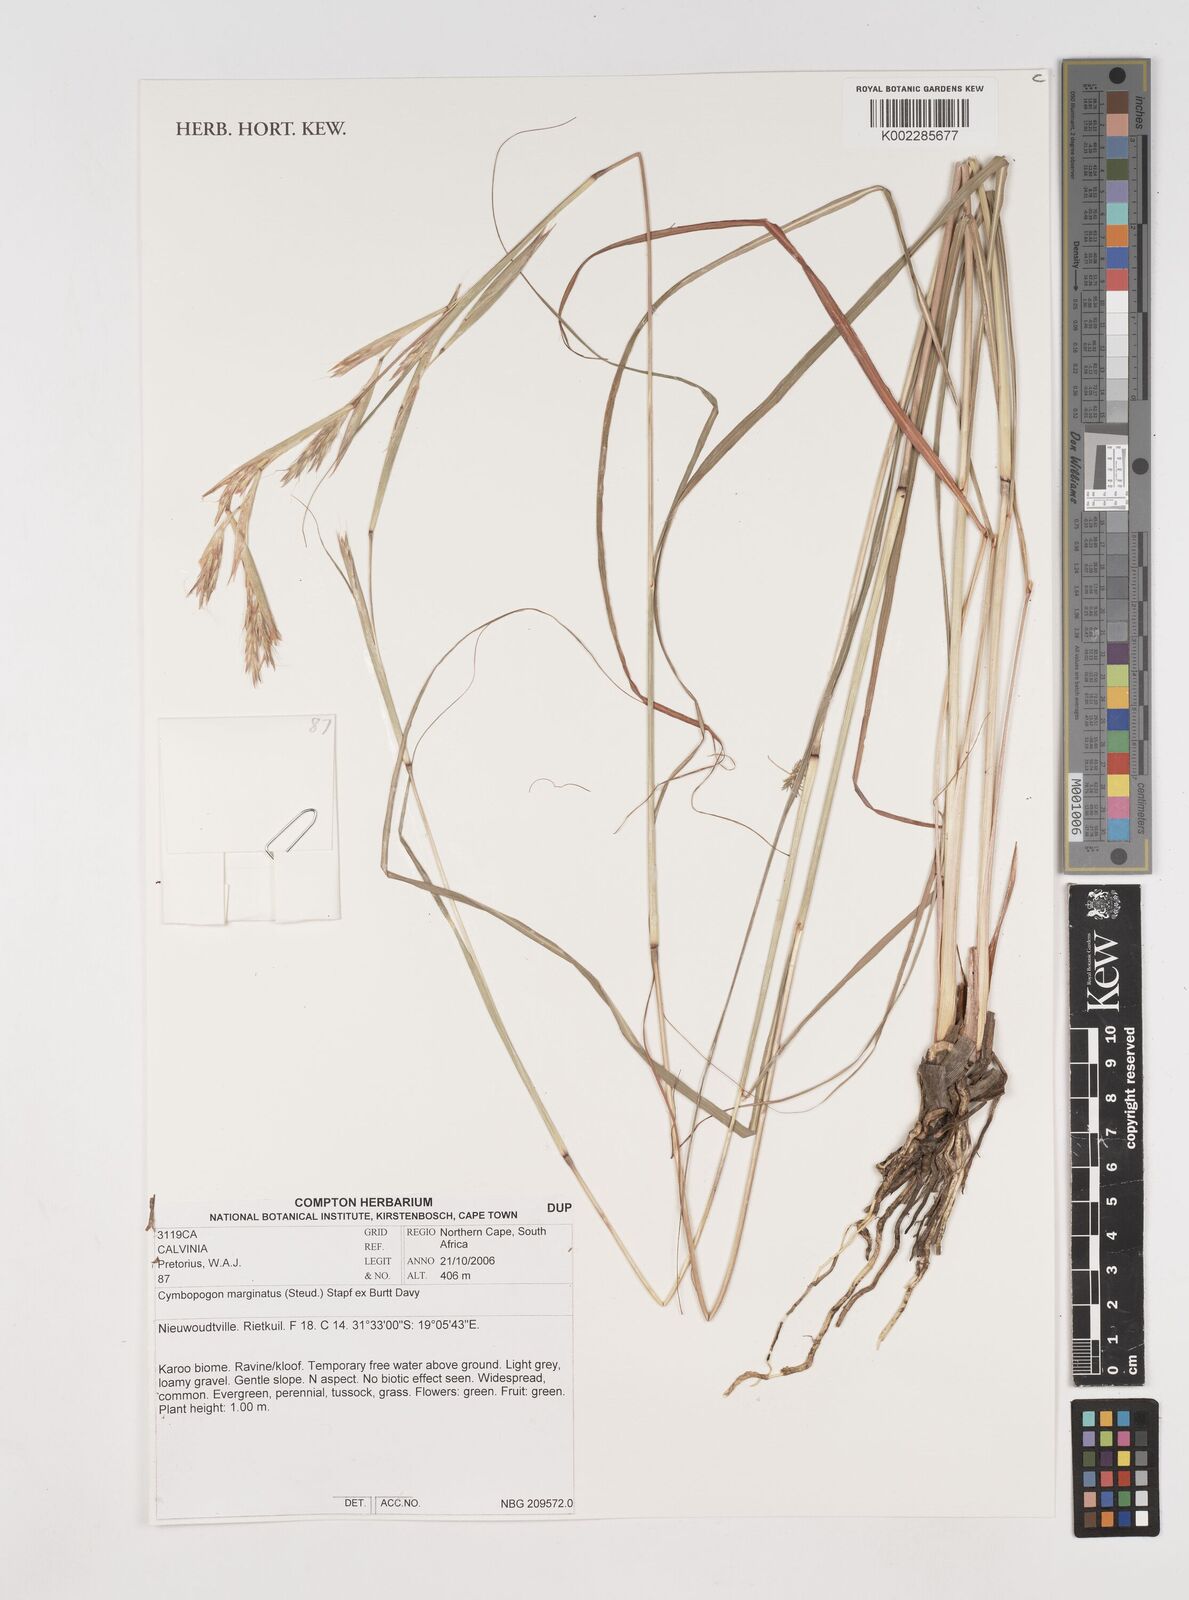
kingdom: Plantae
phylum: Tracheophyta
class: Liliopsida
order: Poales
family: Poaceae
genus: Cymbopogon
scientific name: Cymbopogon marginatus
